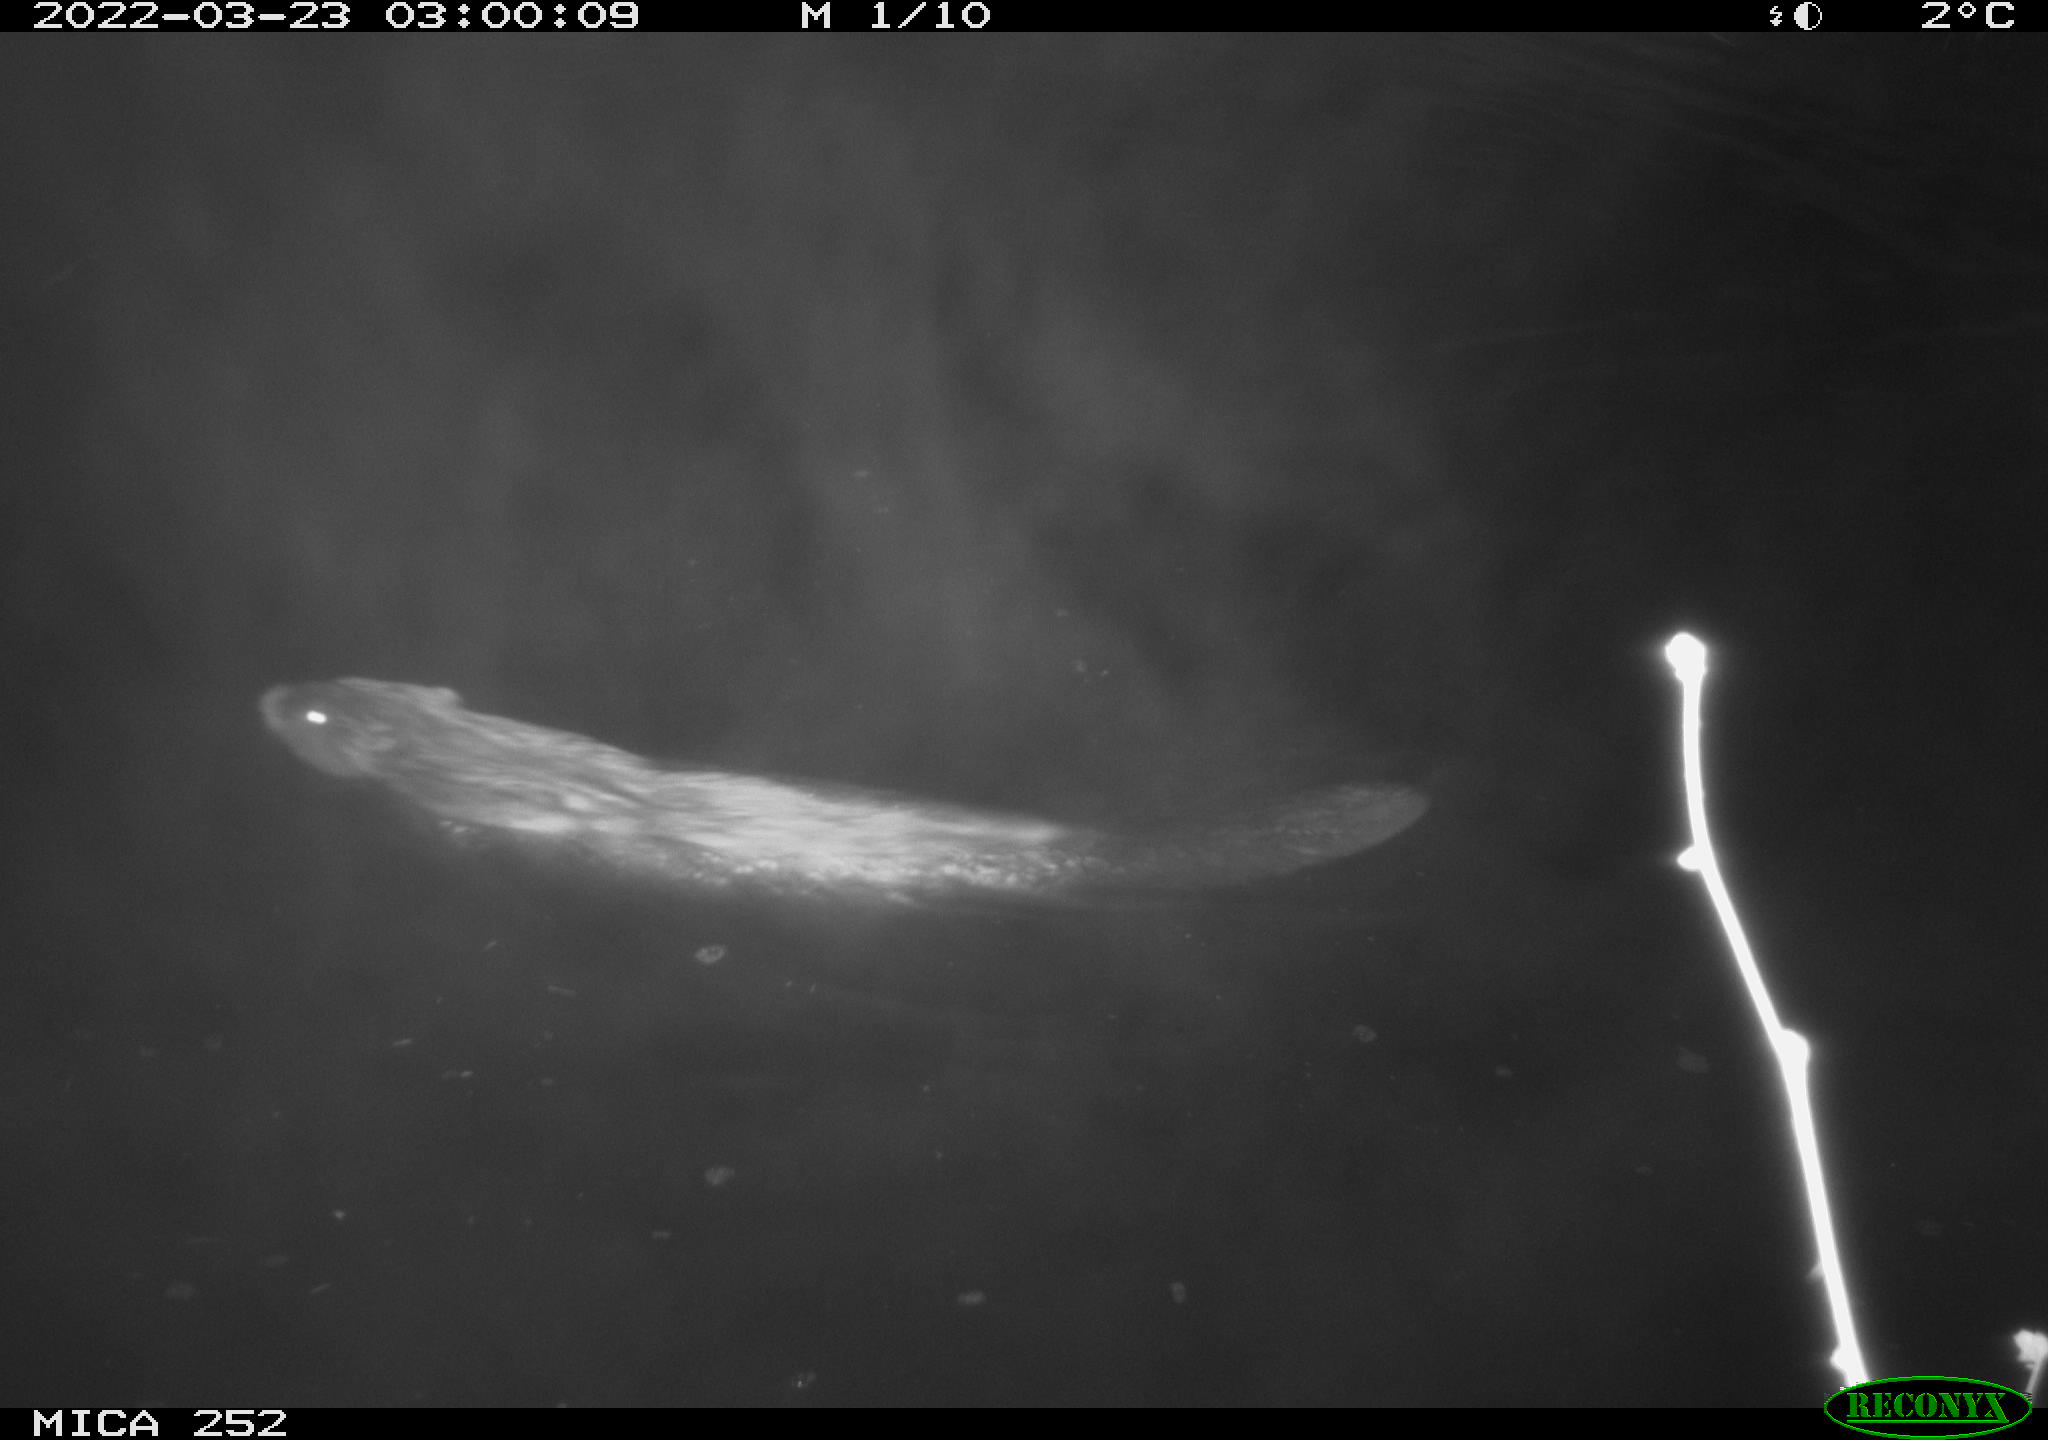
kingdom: Animalia
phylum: Chordata
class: Mammalia
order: Rodentia
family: Castoridae
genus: Castor
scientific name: Castor fiber
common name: Eurasian beaver
